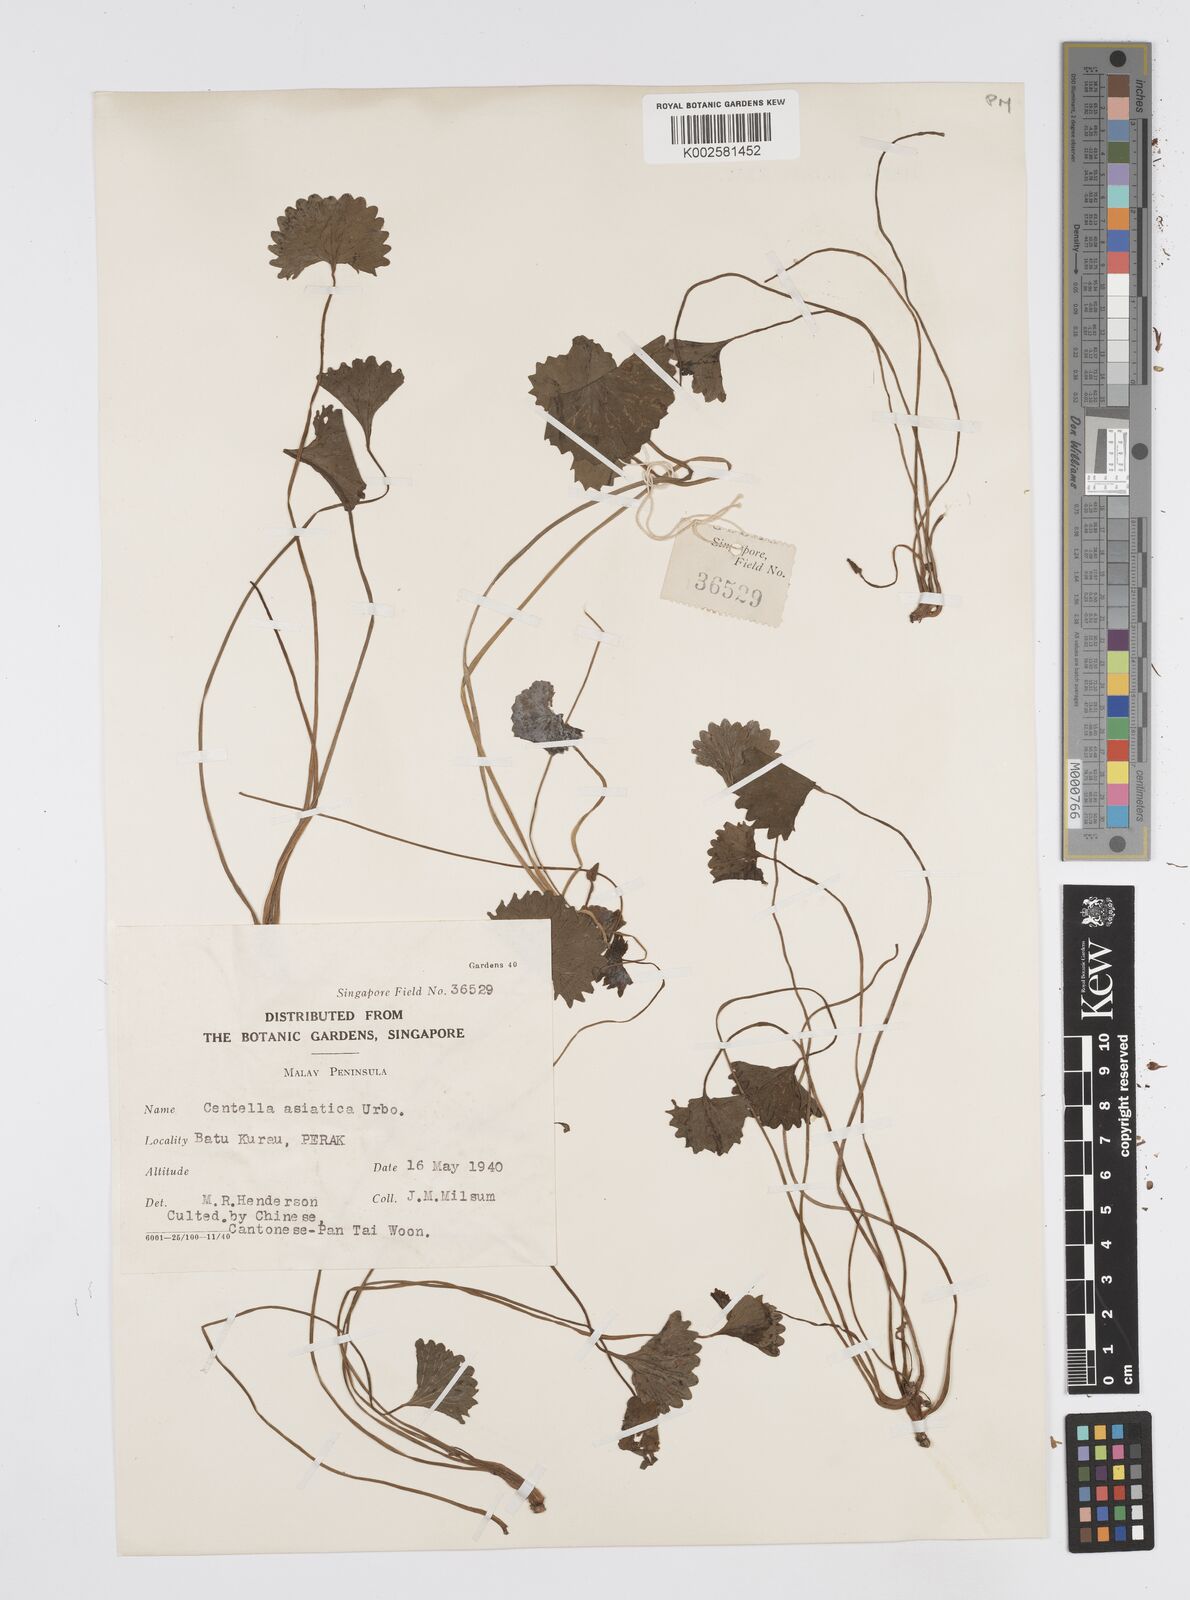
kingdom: Plantae
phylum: Tracheophyta
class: Magnoliopsida
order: Apiales
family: Apiaceae
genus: Centella
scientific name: Centella asiatica
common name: Spadeleaf
